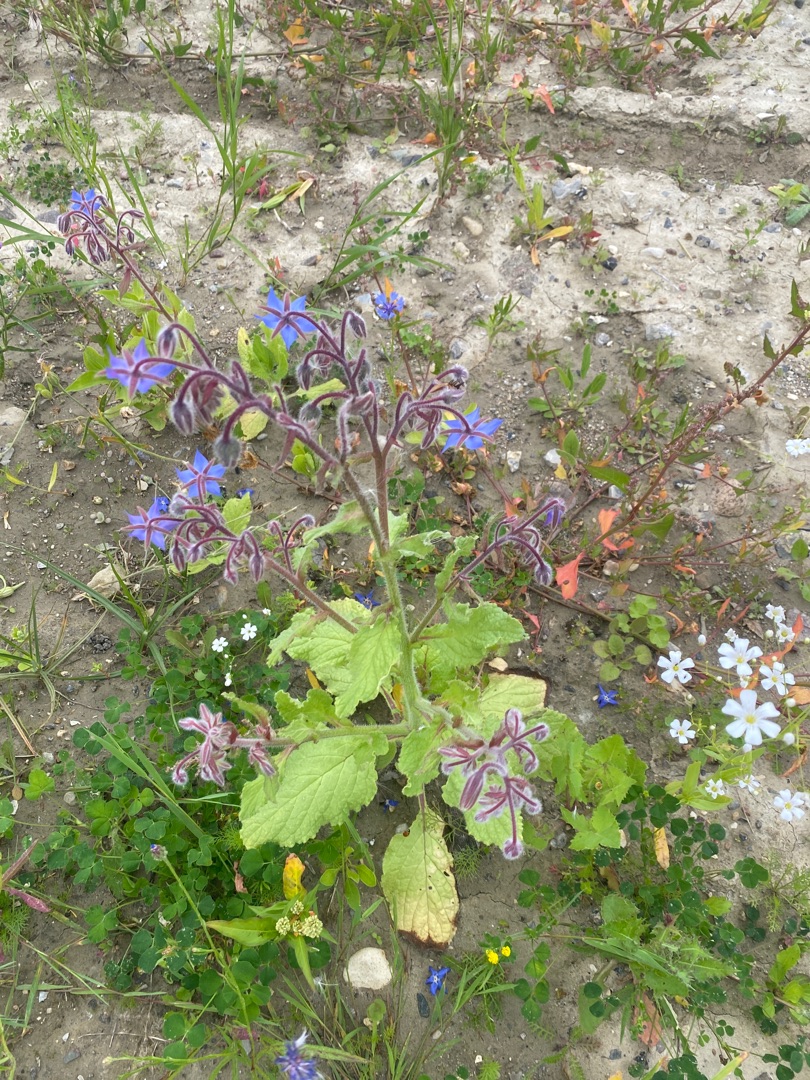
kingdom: Plantae
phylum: Tracheophyta
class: Magnoliopsida
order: Boraginales
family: Boraginaceae
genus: Borago
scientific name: Borago officinalis
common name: Hjulkrone
